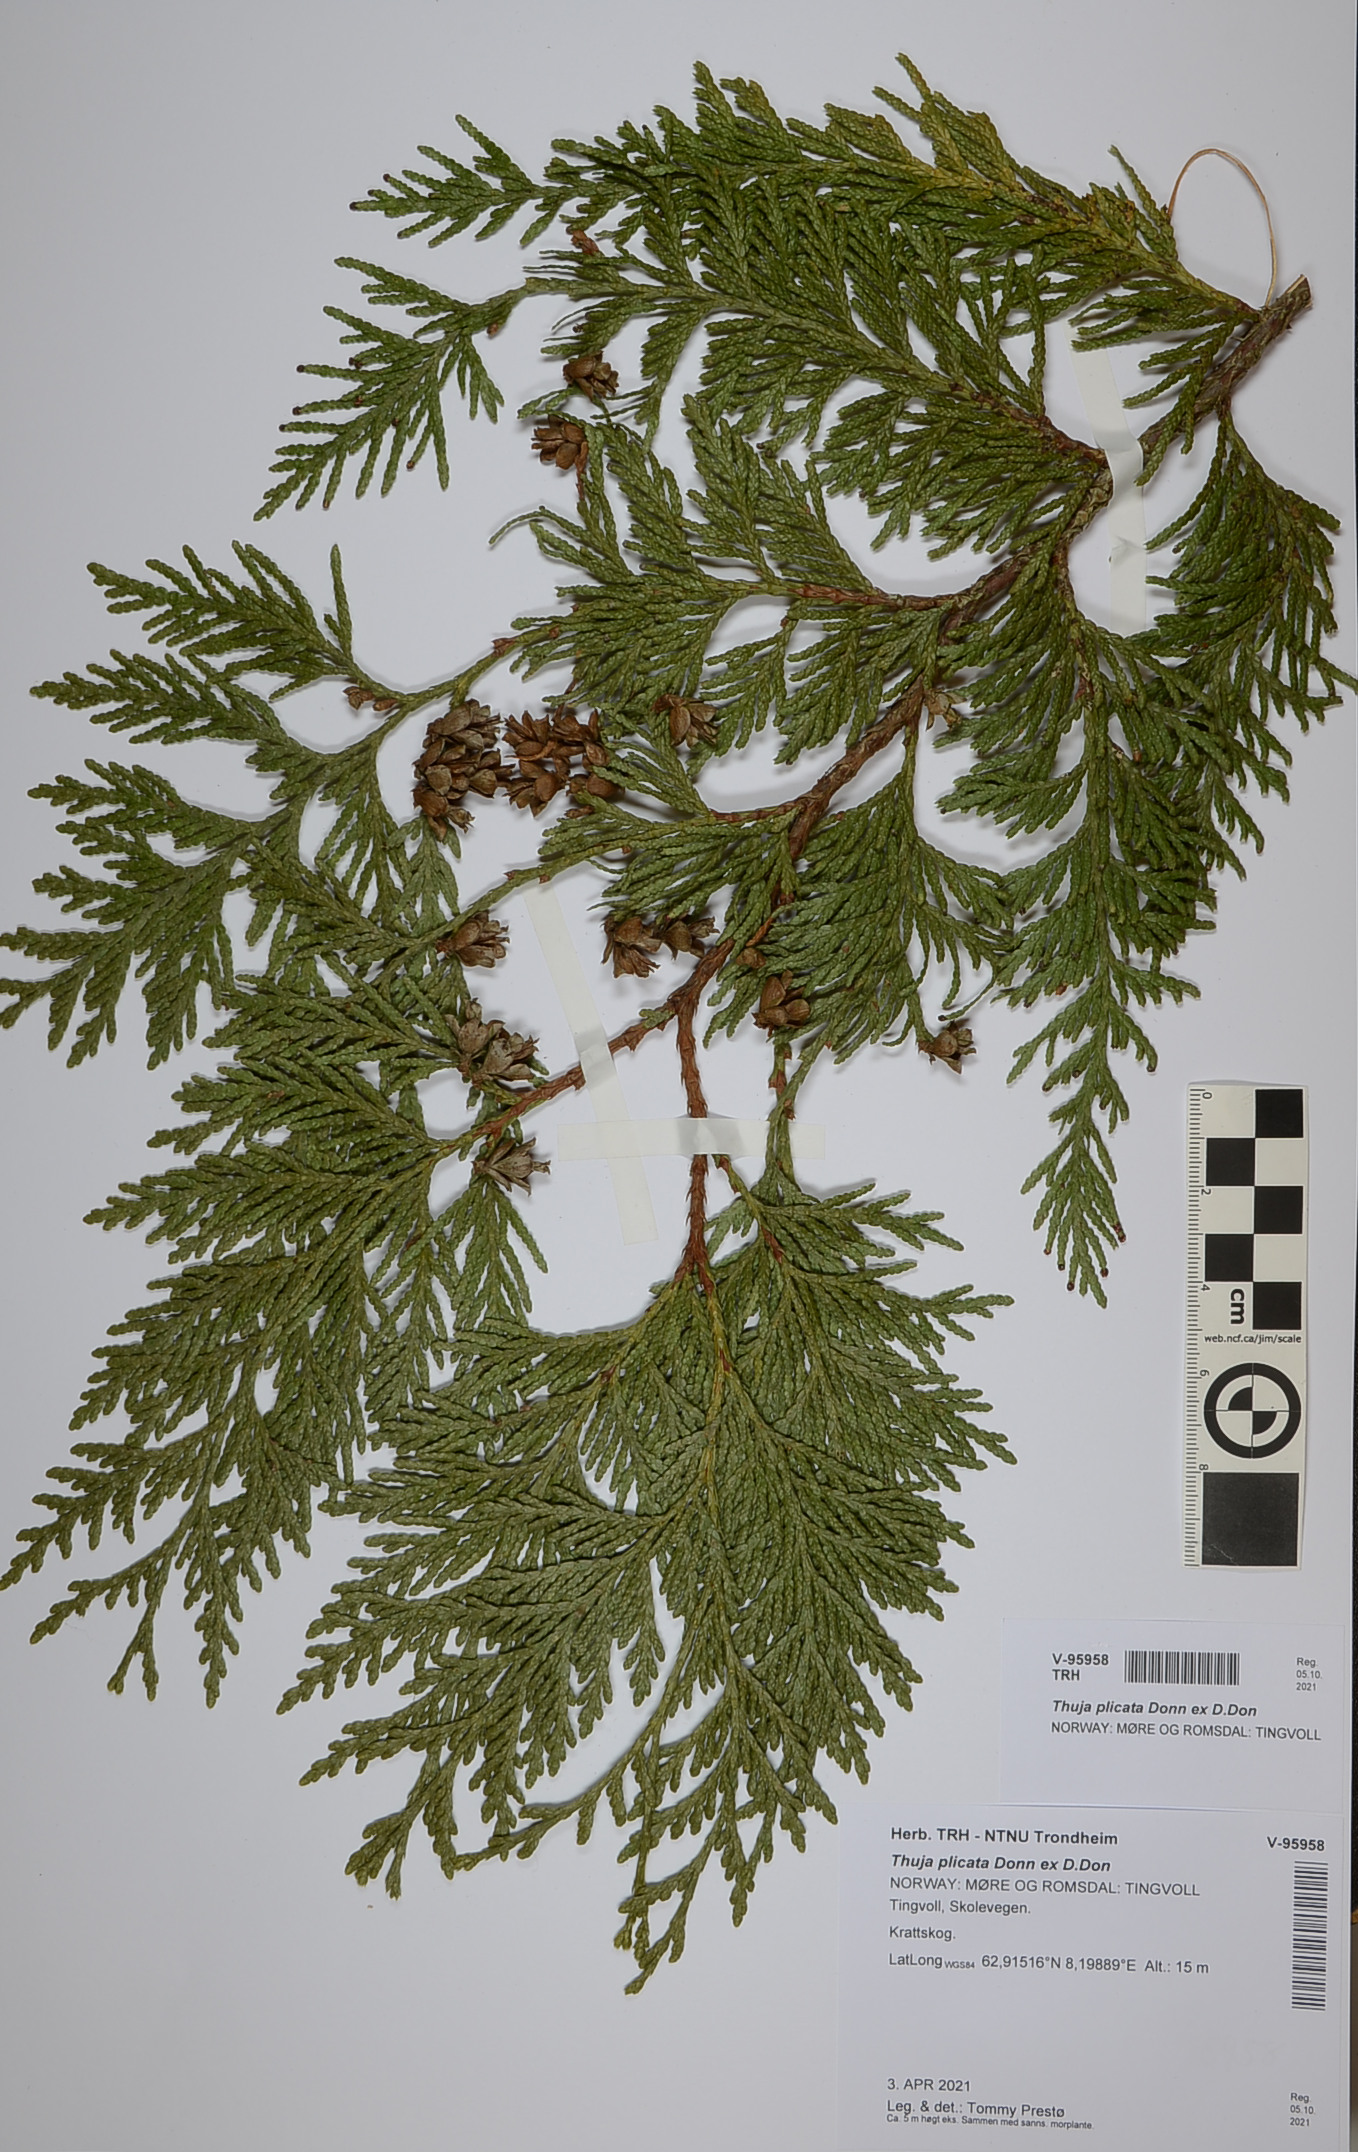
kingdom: Plantae
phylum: Tracheophyta
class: Pinopsida
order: Pinales
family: Cupressaceae
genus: Thuja
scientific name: Thuja plicata
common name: Western red-cedar
